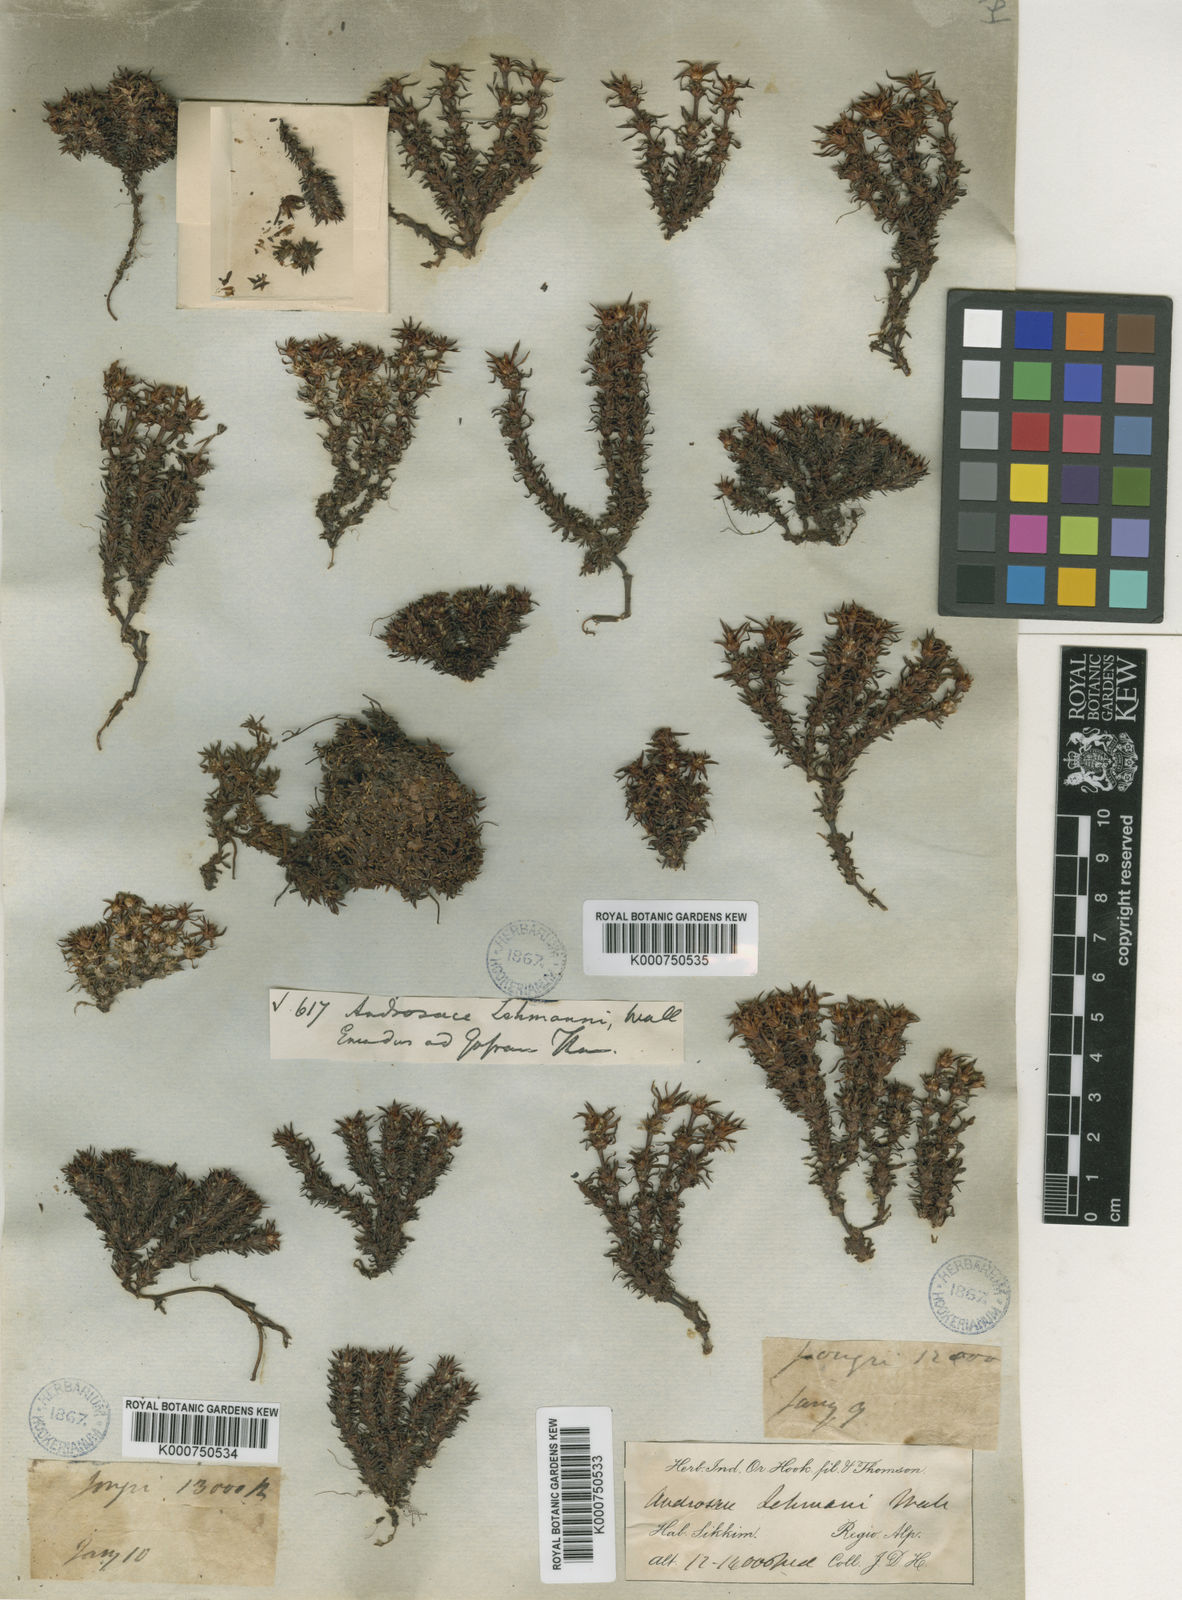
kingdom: Plantae
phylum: Tracheophyta
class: Magnoliopsida
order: Ericales
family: Primulaceae
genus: Androsace
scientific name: Androsace lehmannii
